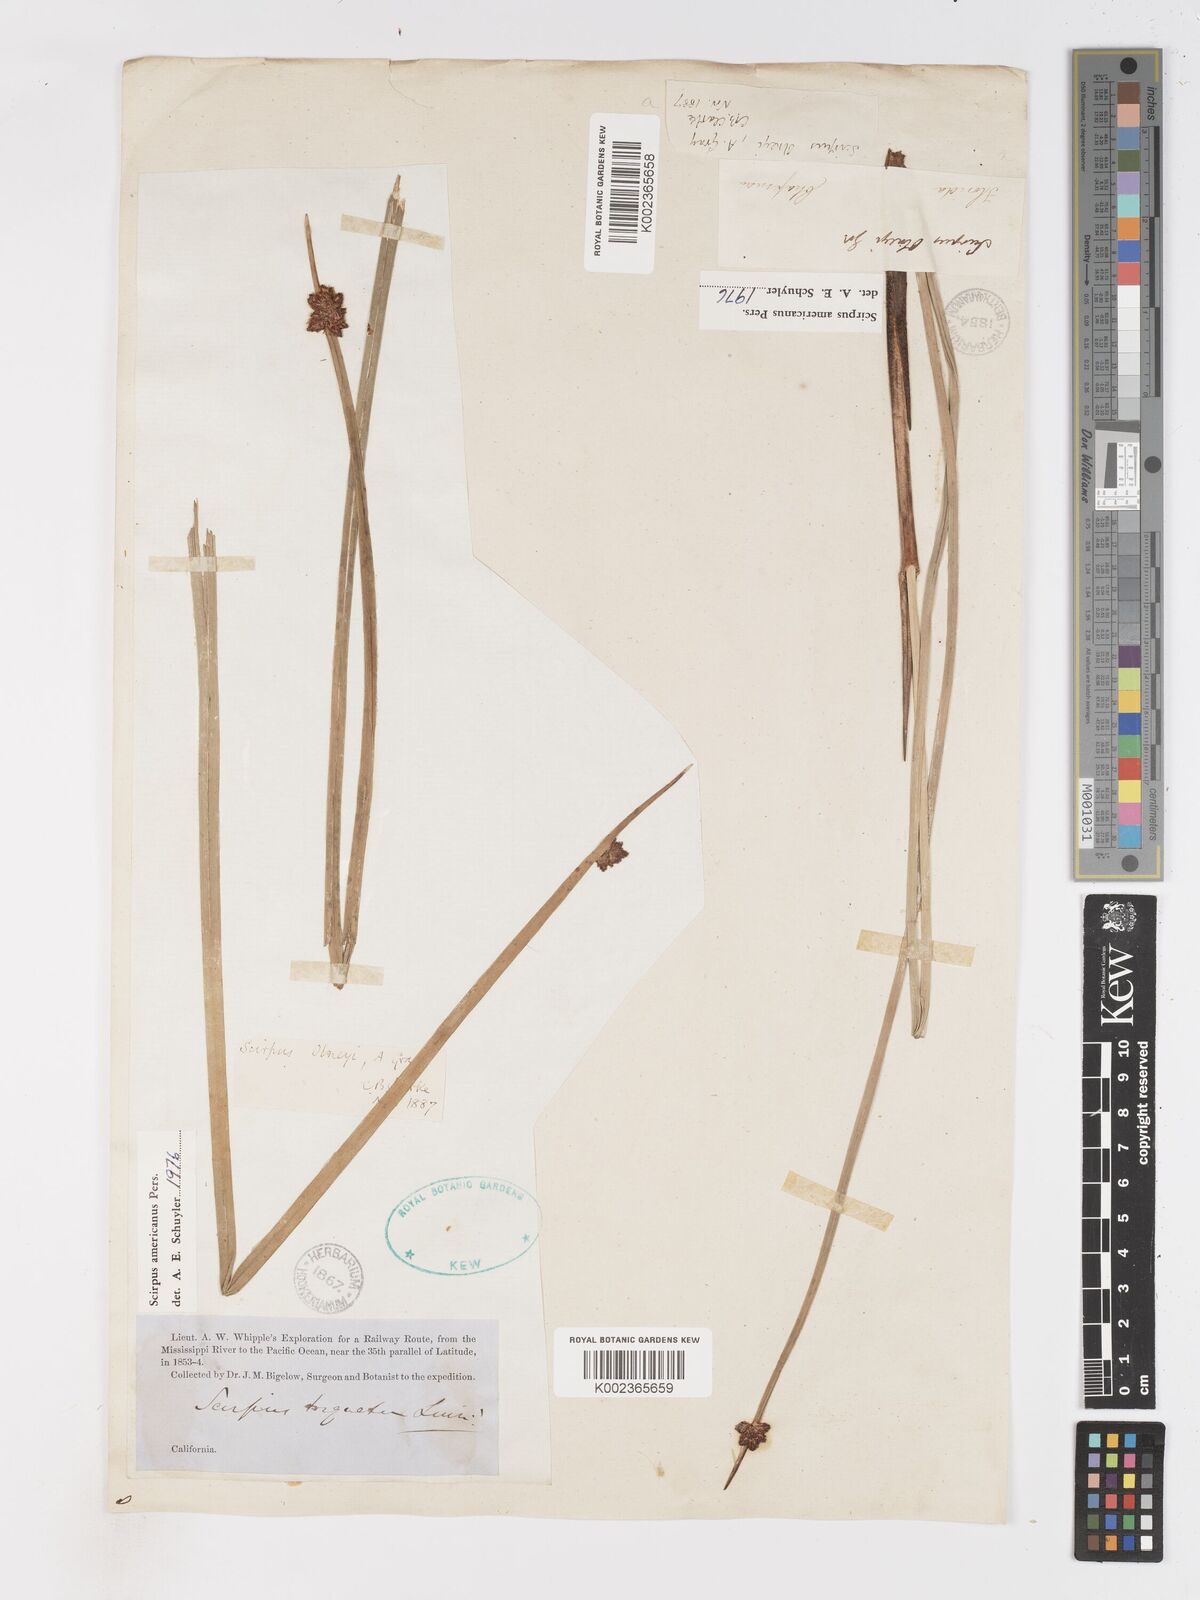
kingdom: Plantae
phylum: Tracheophyta
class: Liliopsida
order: Poales
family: Cyperaceae
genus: Schoenoplectus
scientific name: Schoenoplectus americanus
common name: American three-square bulrush
